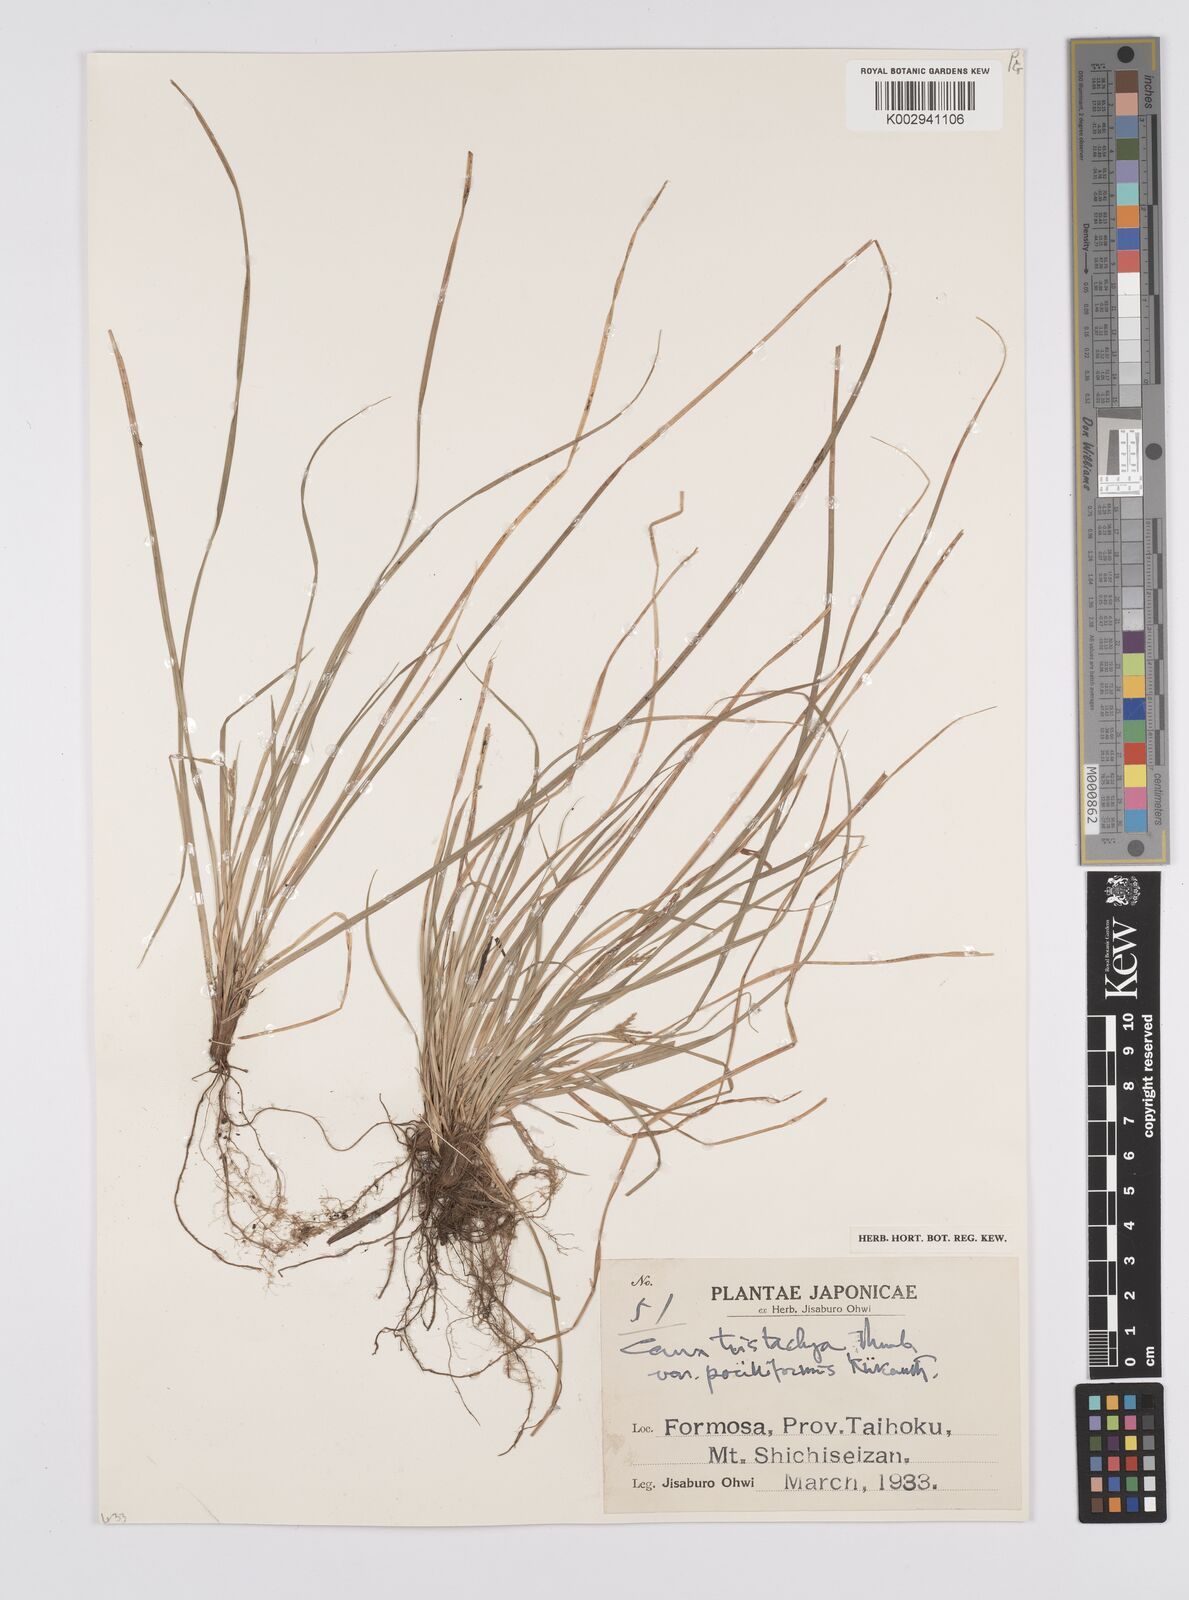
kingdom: Plantae
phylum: Tracheophyta
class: Liliopsida
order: Poales
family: Cyperaceae
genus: Carex
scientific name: Carex tristachya
